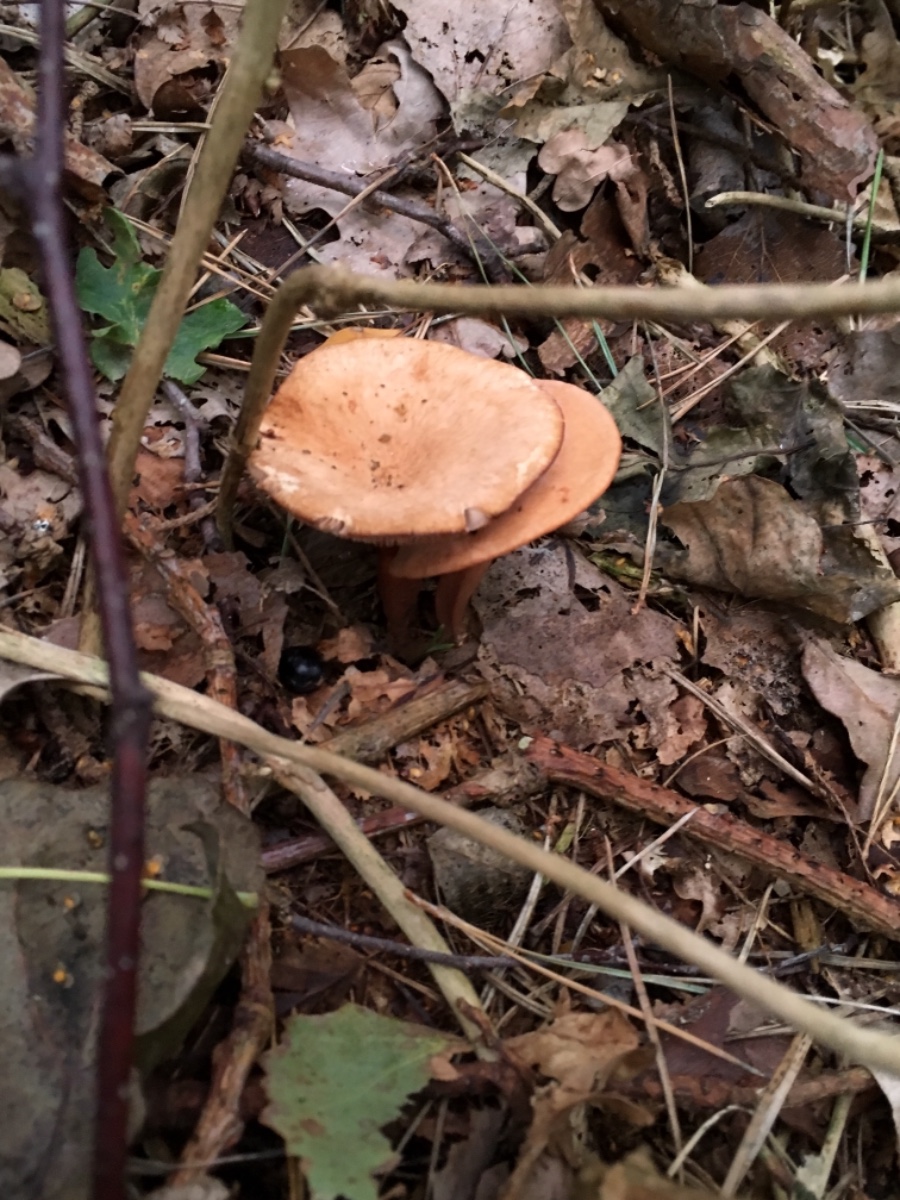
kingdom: Fungi
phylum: Basidiomycota
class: Agaricomycetes
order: Russulales
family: Russulaceae
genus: Lactarius
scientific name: Lactarius rufus
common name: rødbrun mælkehat
